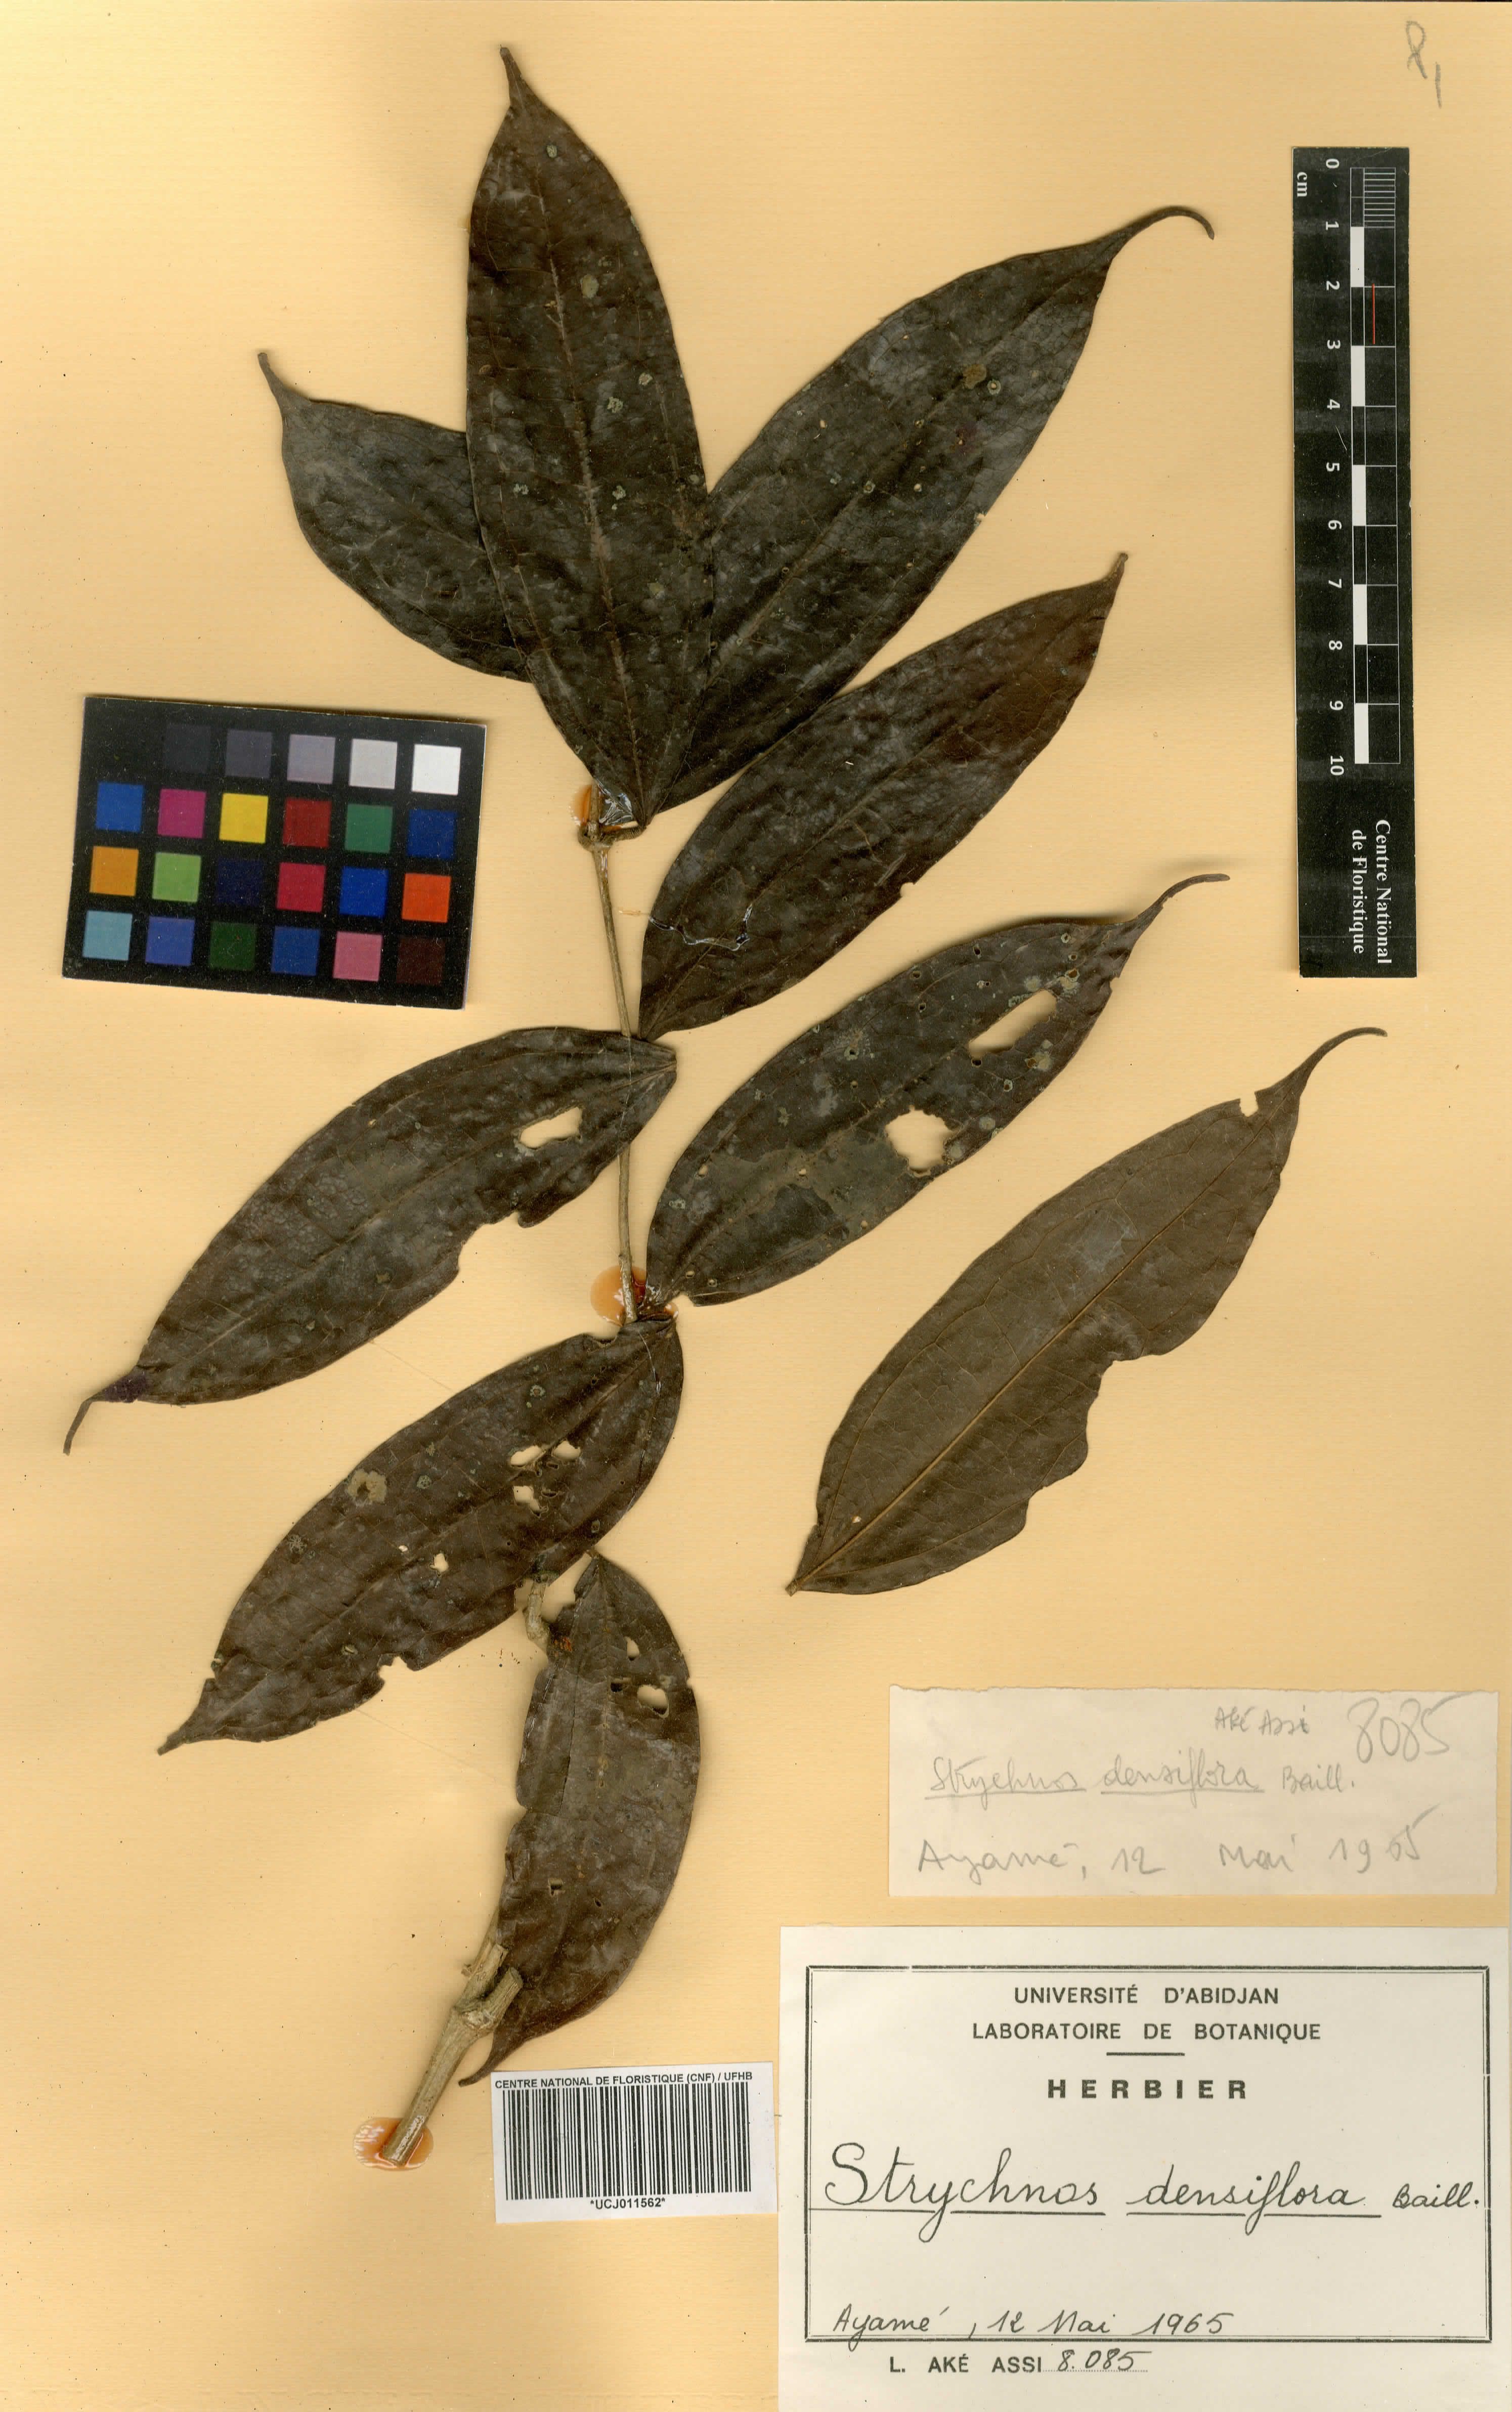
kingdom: Plantae
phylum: Tracheophyta
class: Magnoliopsida
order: Gentianales
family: Loganiaceae
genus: Strychnos
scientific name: Strychnos densiflora
